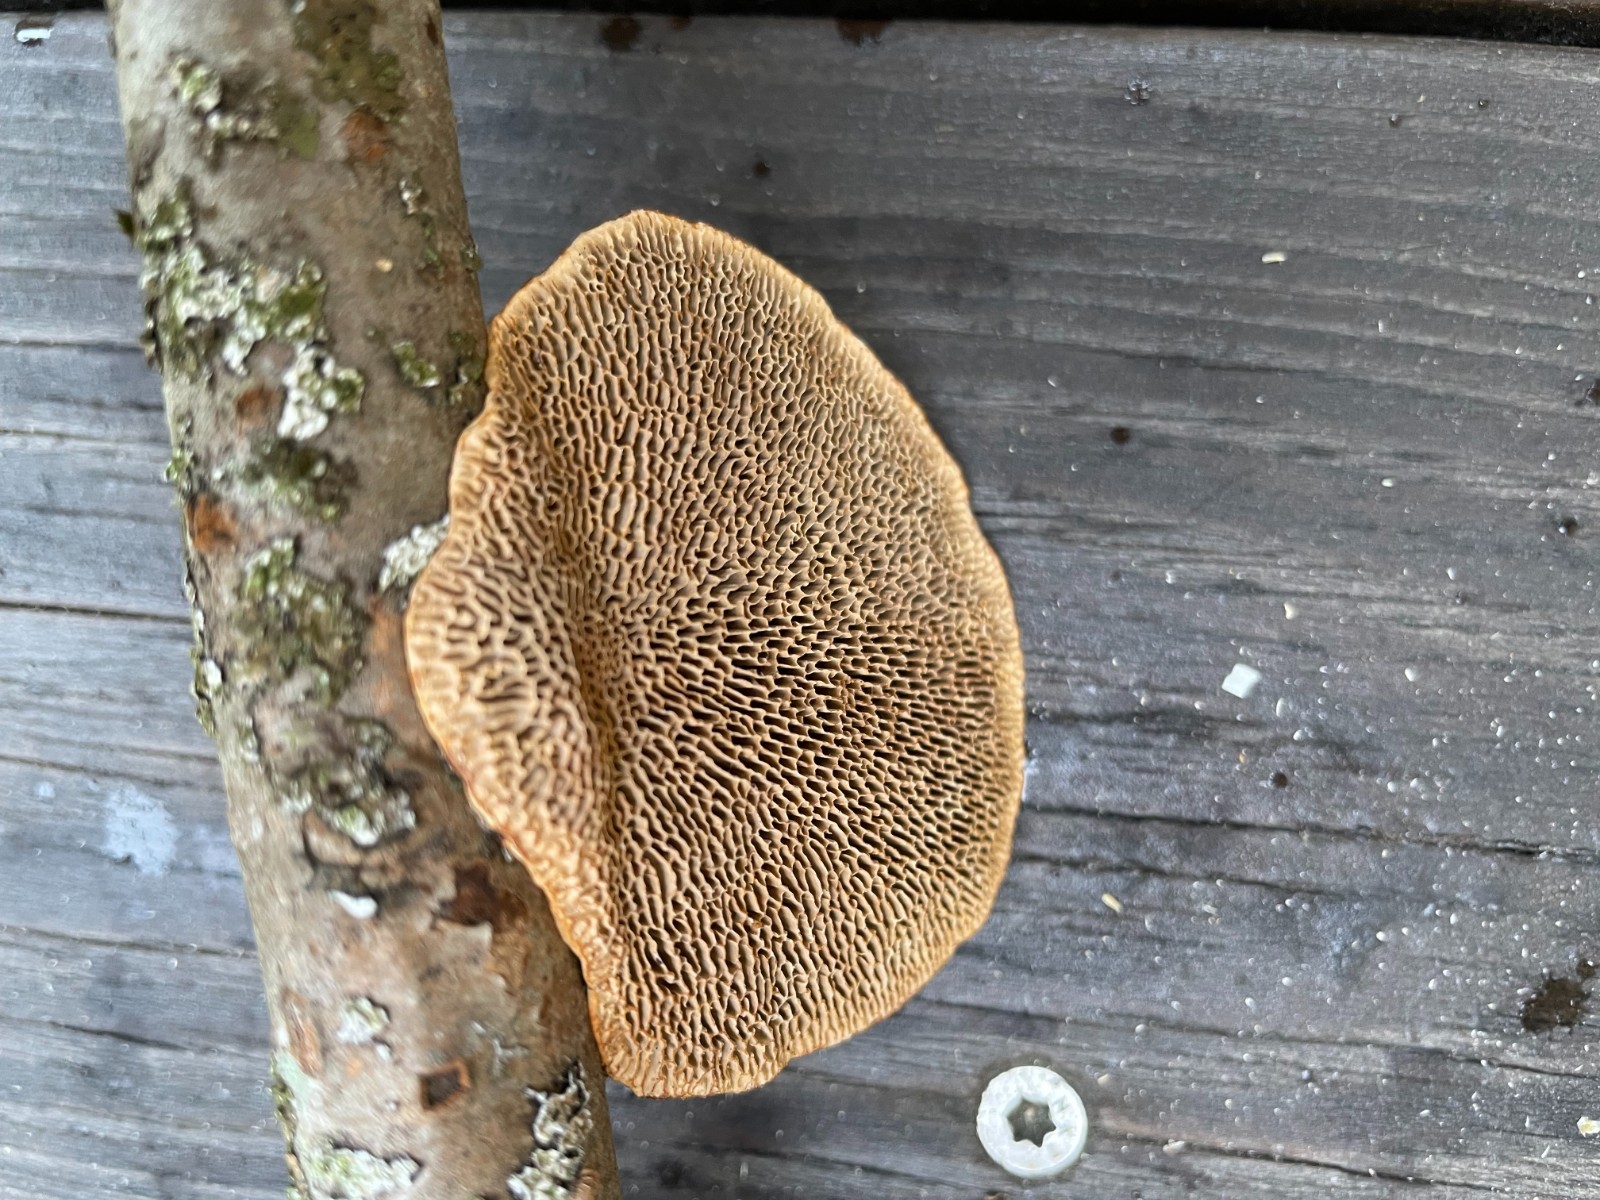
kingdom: Fungi
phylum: Basidiomycota
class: Agaricomycetes
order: Polyporales
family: Polyporaceae
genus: Daedaleopsis
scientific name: Daedaleopsis confragosa
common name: rødmende læderporesvamp
